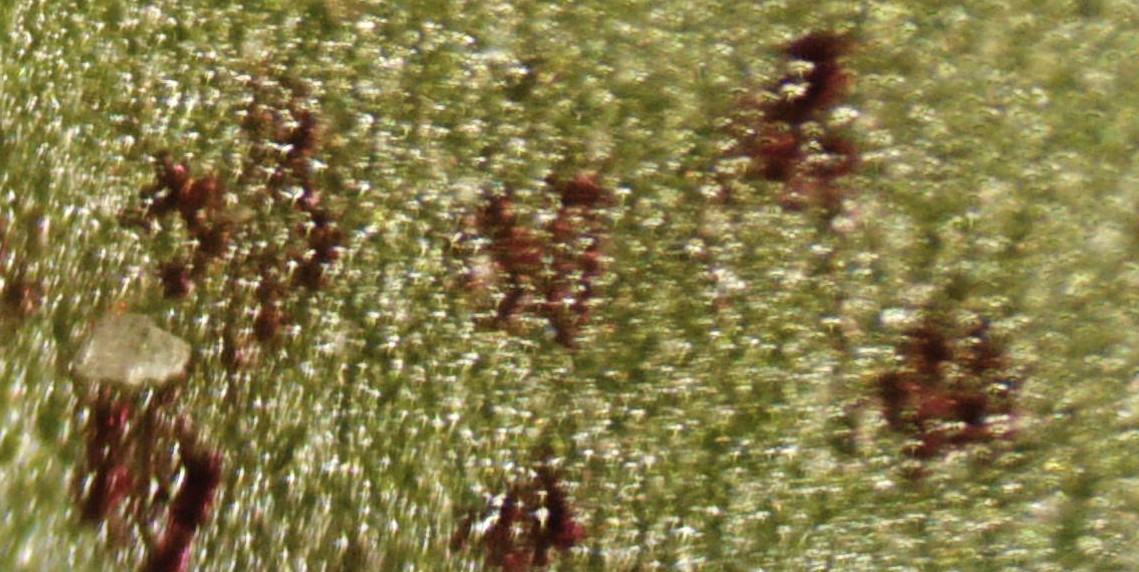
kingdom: Fungi
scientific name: Fungi
